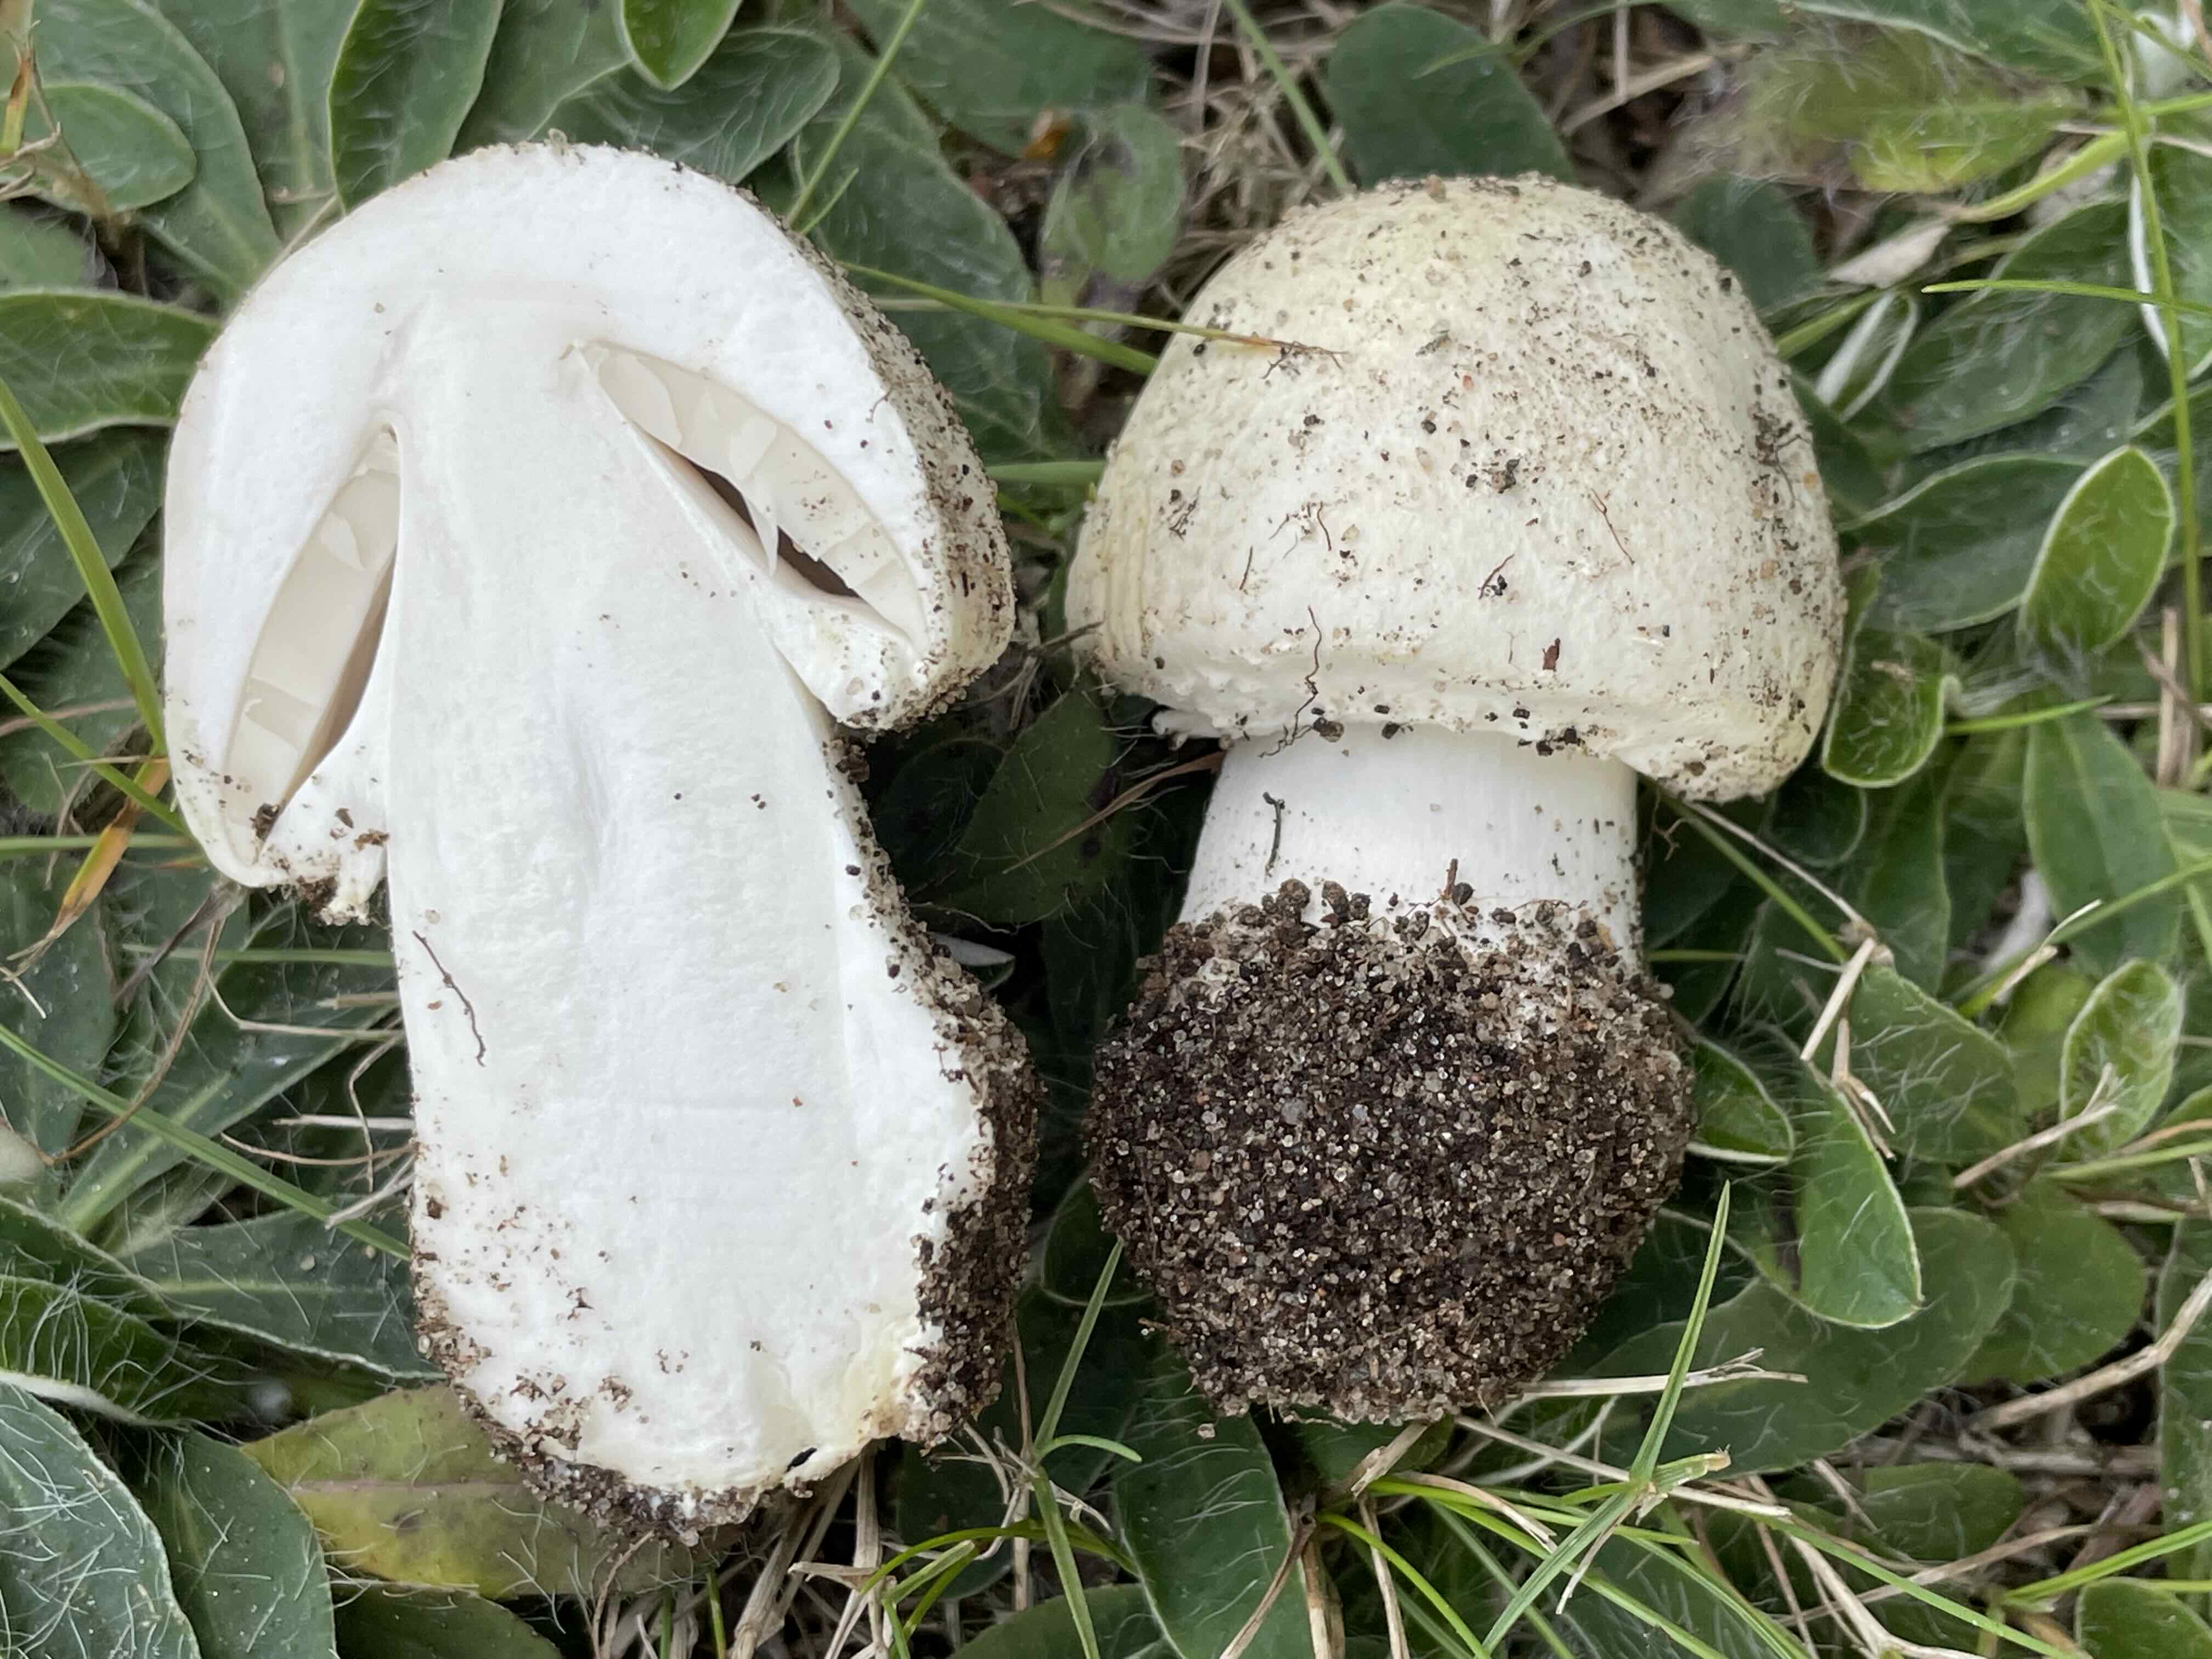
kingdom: Fungi
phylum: Basidiomycota
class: Agaricomycetes
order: Agaricales
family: Agaricaceae
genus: Agaricus
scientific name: Agaricus arvensis
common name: ager-champignon
